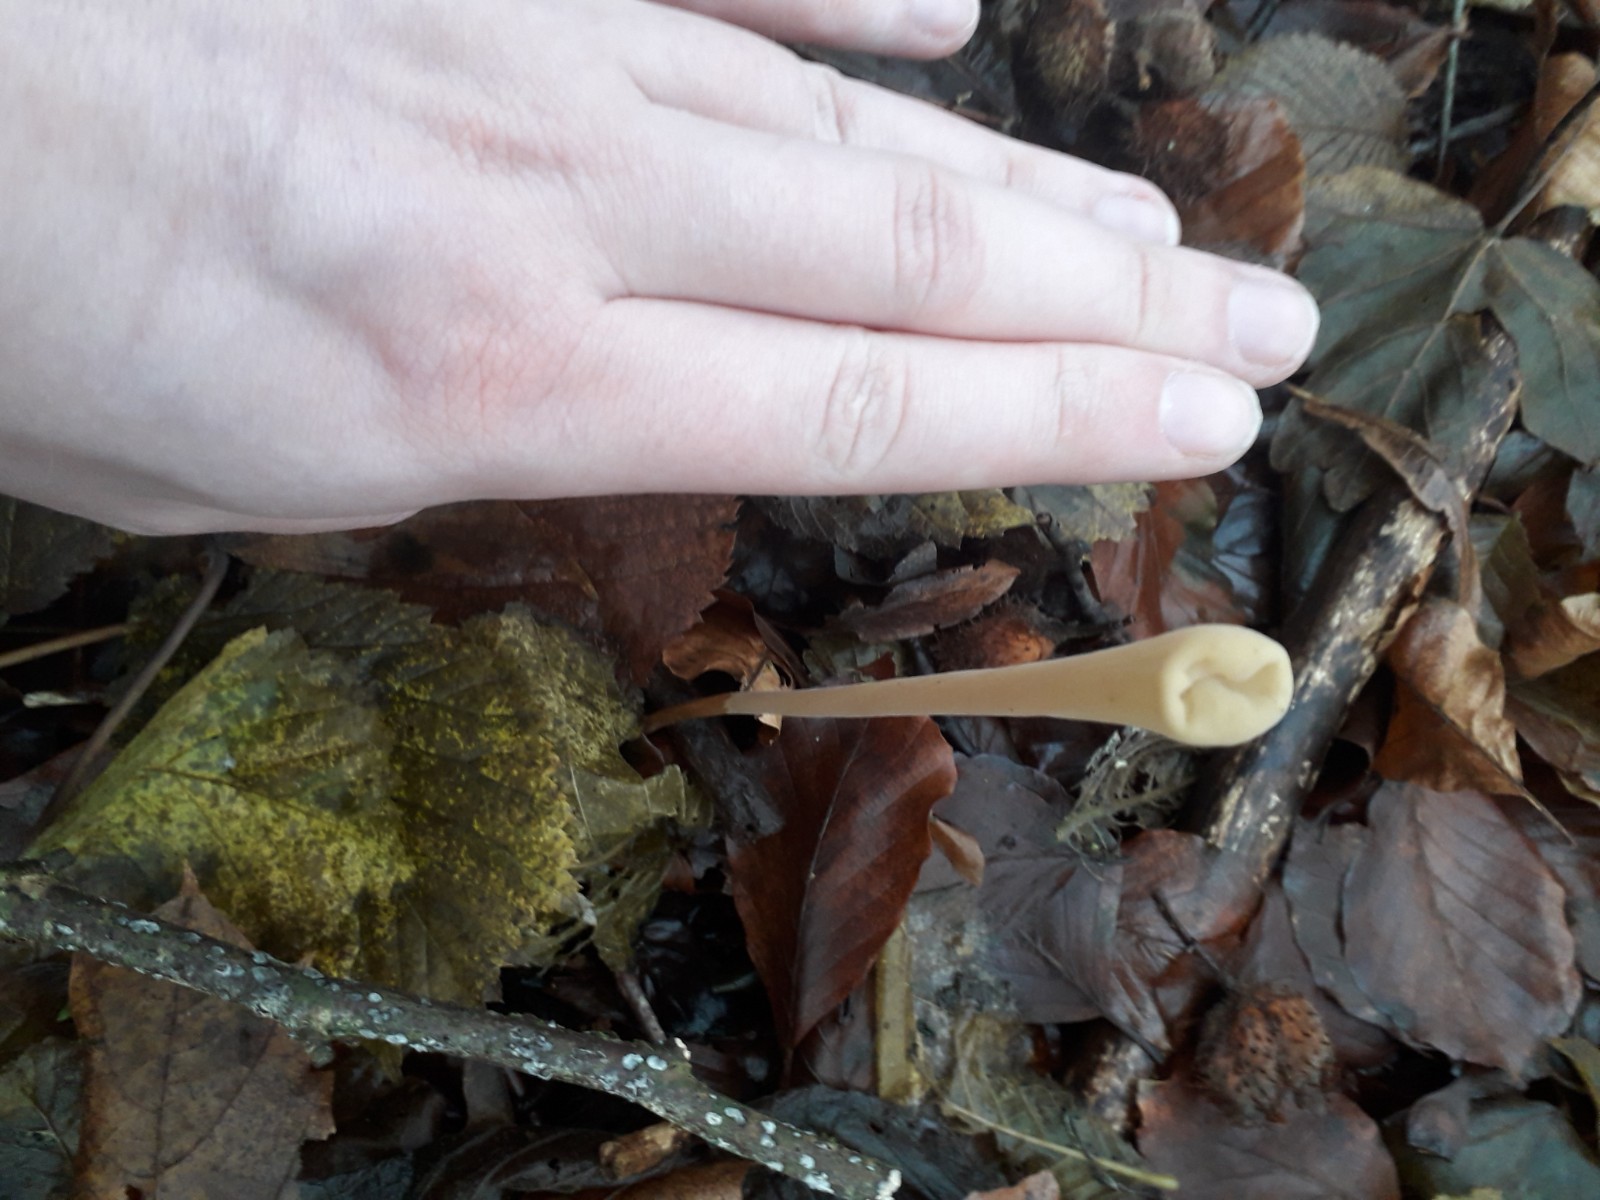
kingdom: Fungi
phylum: Basidiomycota
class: Agaricomycetes
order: Agaricales
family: Typhulaceae
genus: Typhula
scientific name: Typhula fistulosa
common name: pibet rørkølle
